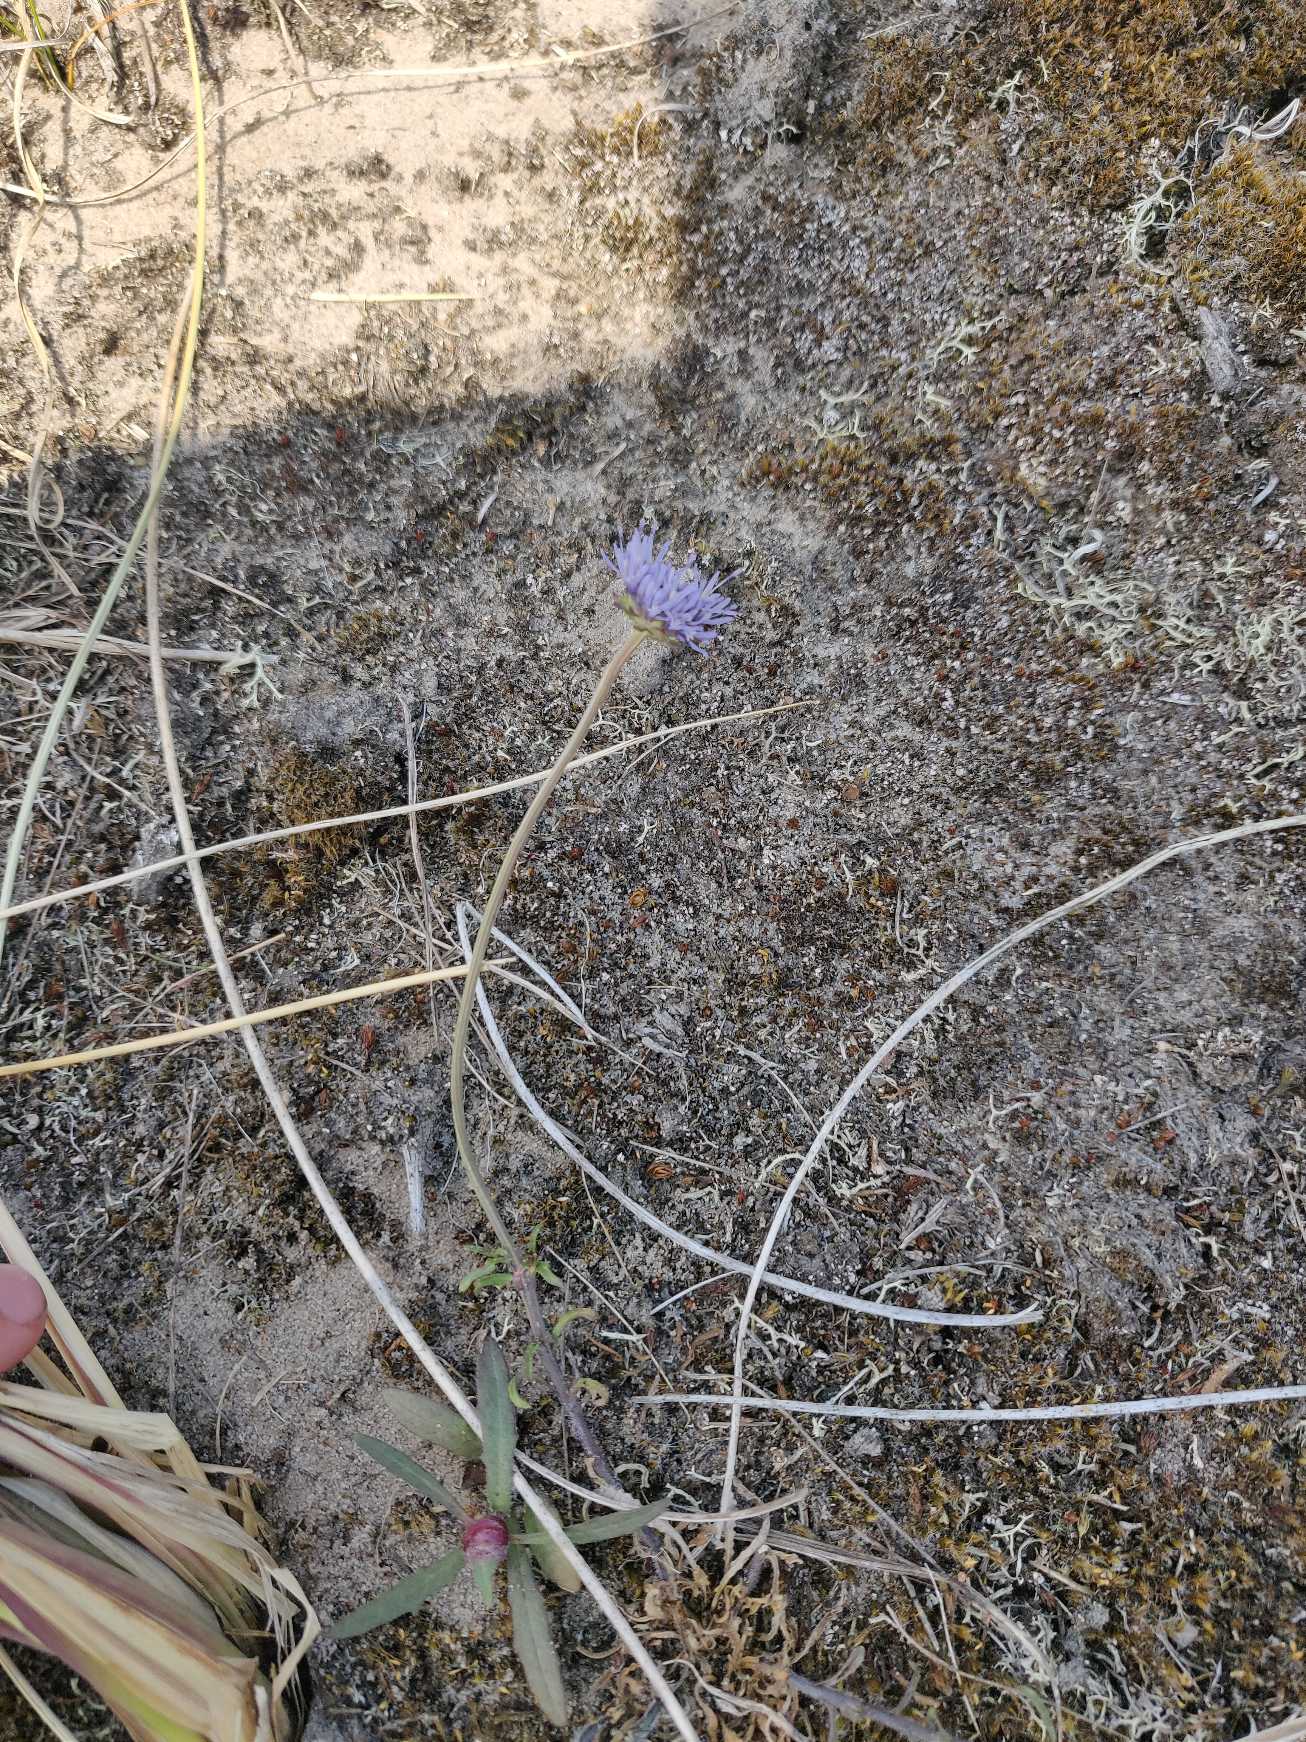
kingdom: Plantae
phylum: Tracheophyta
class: Magnoliopsida
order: Asterales
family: Campanulaceae
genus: Jasione
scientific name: Jasione montana
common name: Blåmunke
